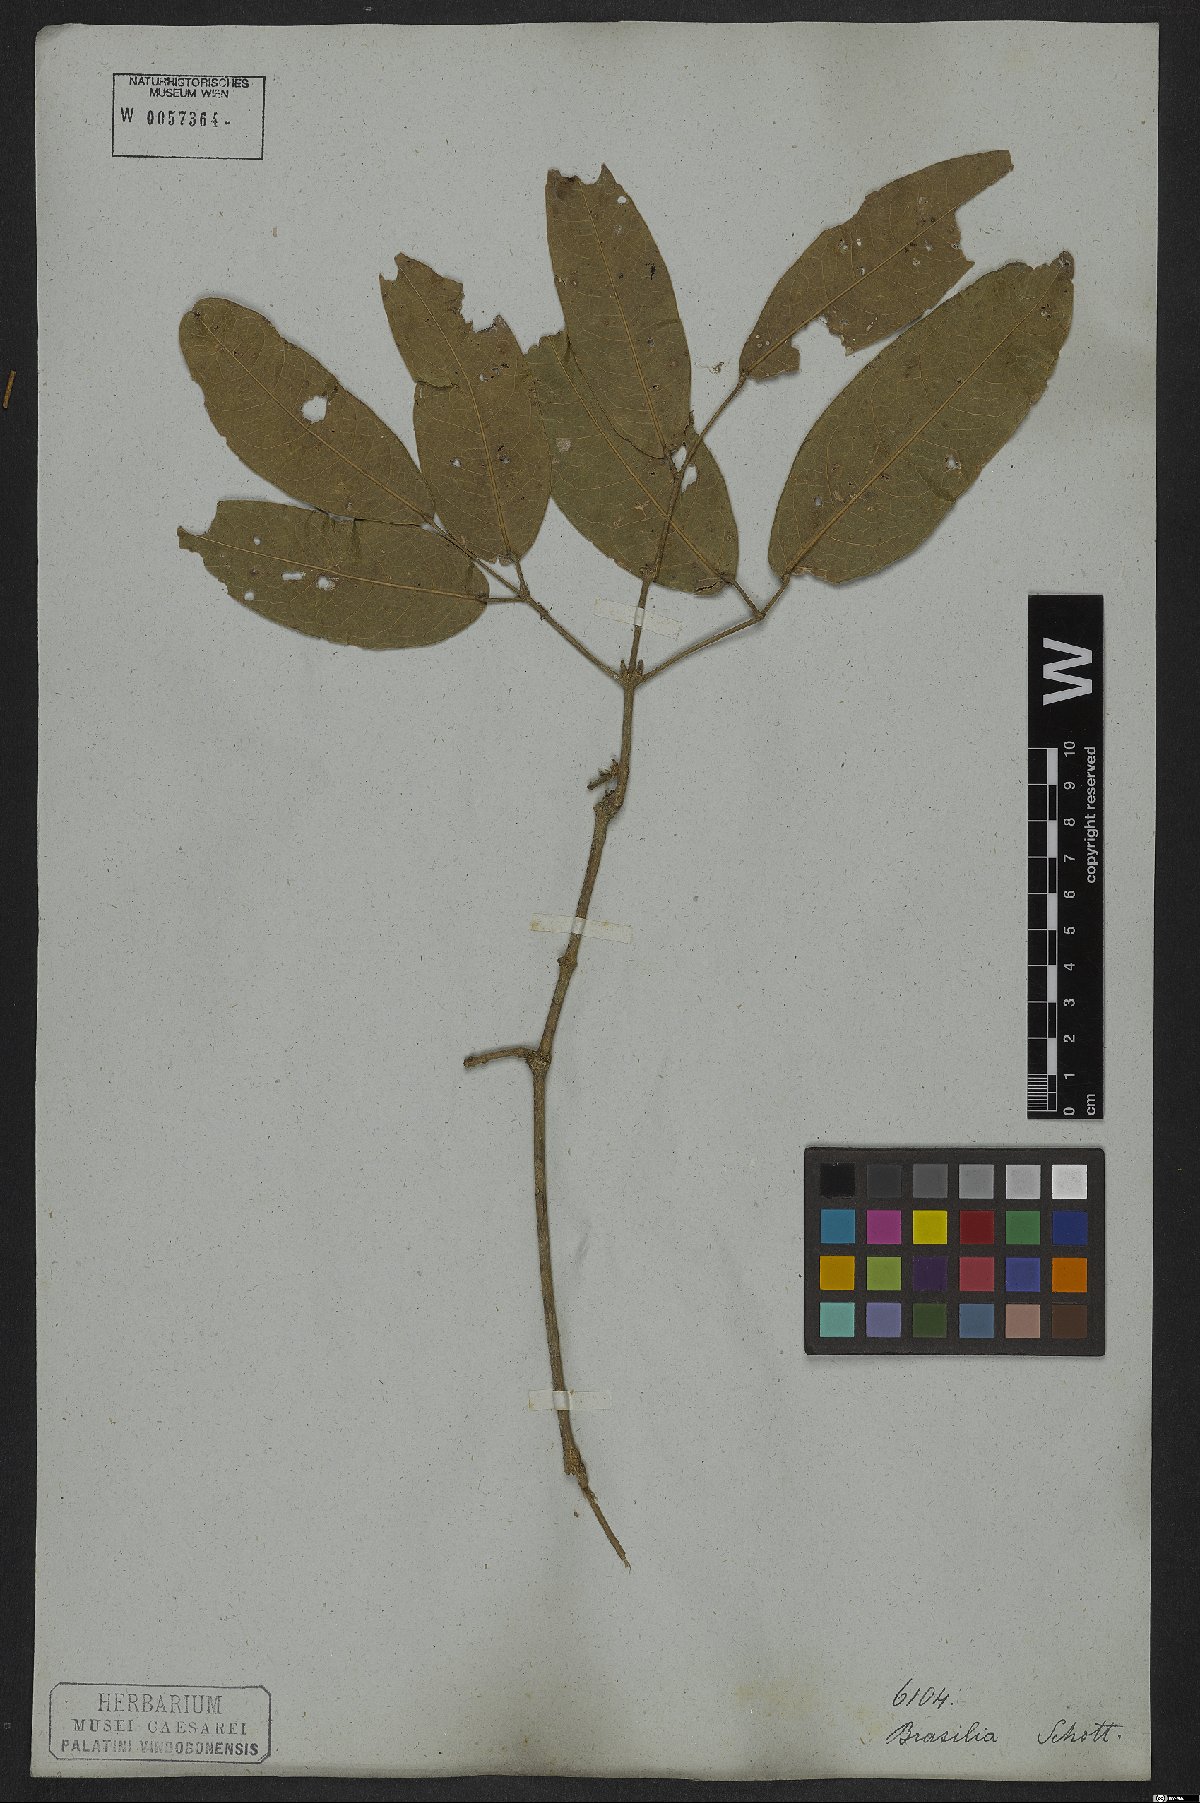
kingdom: Plantae
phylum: Tracheophyta
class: Magnoliopsida
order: Lamiales
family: Bignoniaceae
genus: Adenocalymma
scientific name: Adenocalymma trifoliatum
